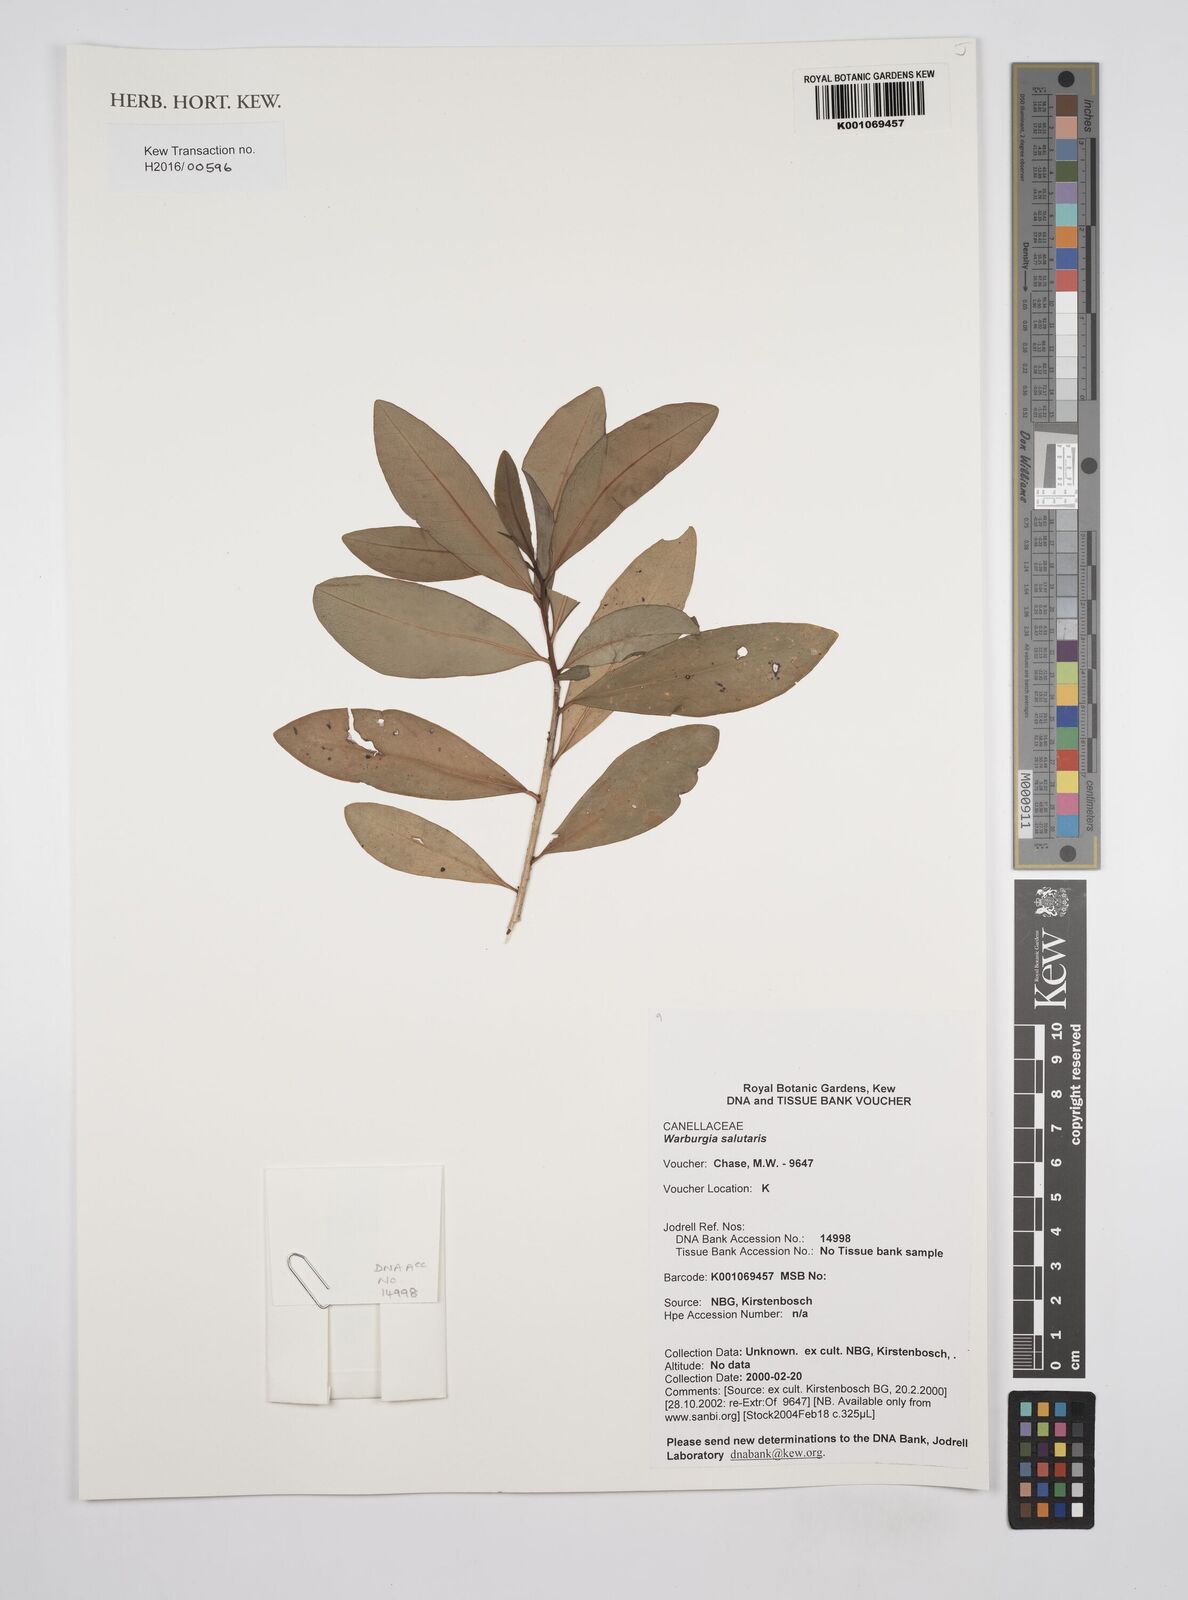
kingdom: Plantae
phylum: Tracheophyta
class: Magnoliopsida
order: Canellales
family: Canellaceae
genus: Warburgia
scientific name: Warburgia salutaris
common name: Pepper bark tree
